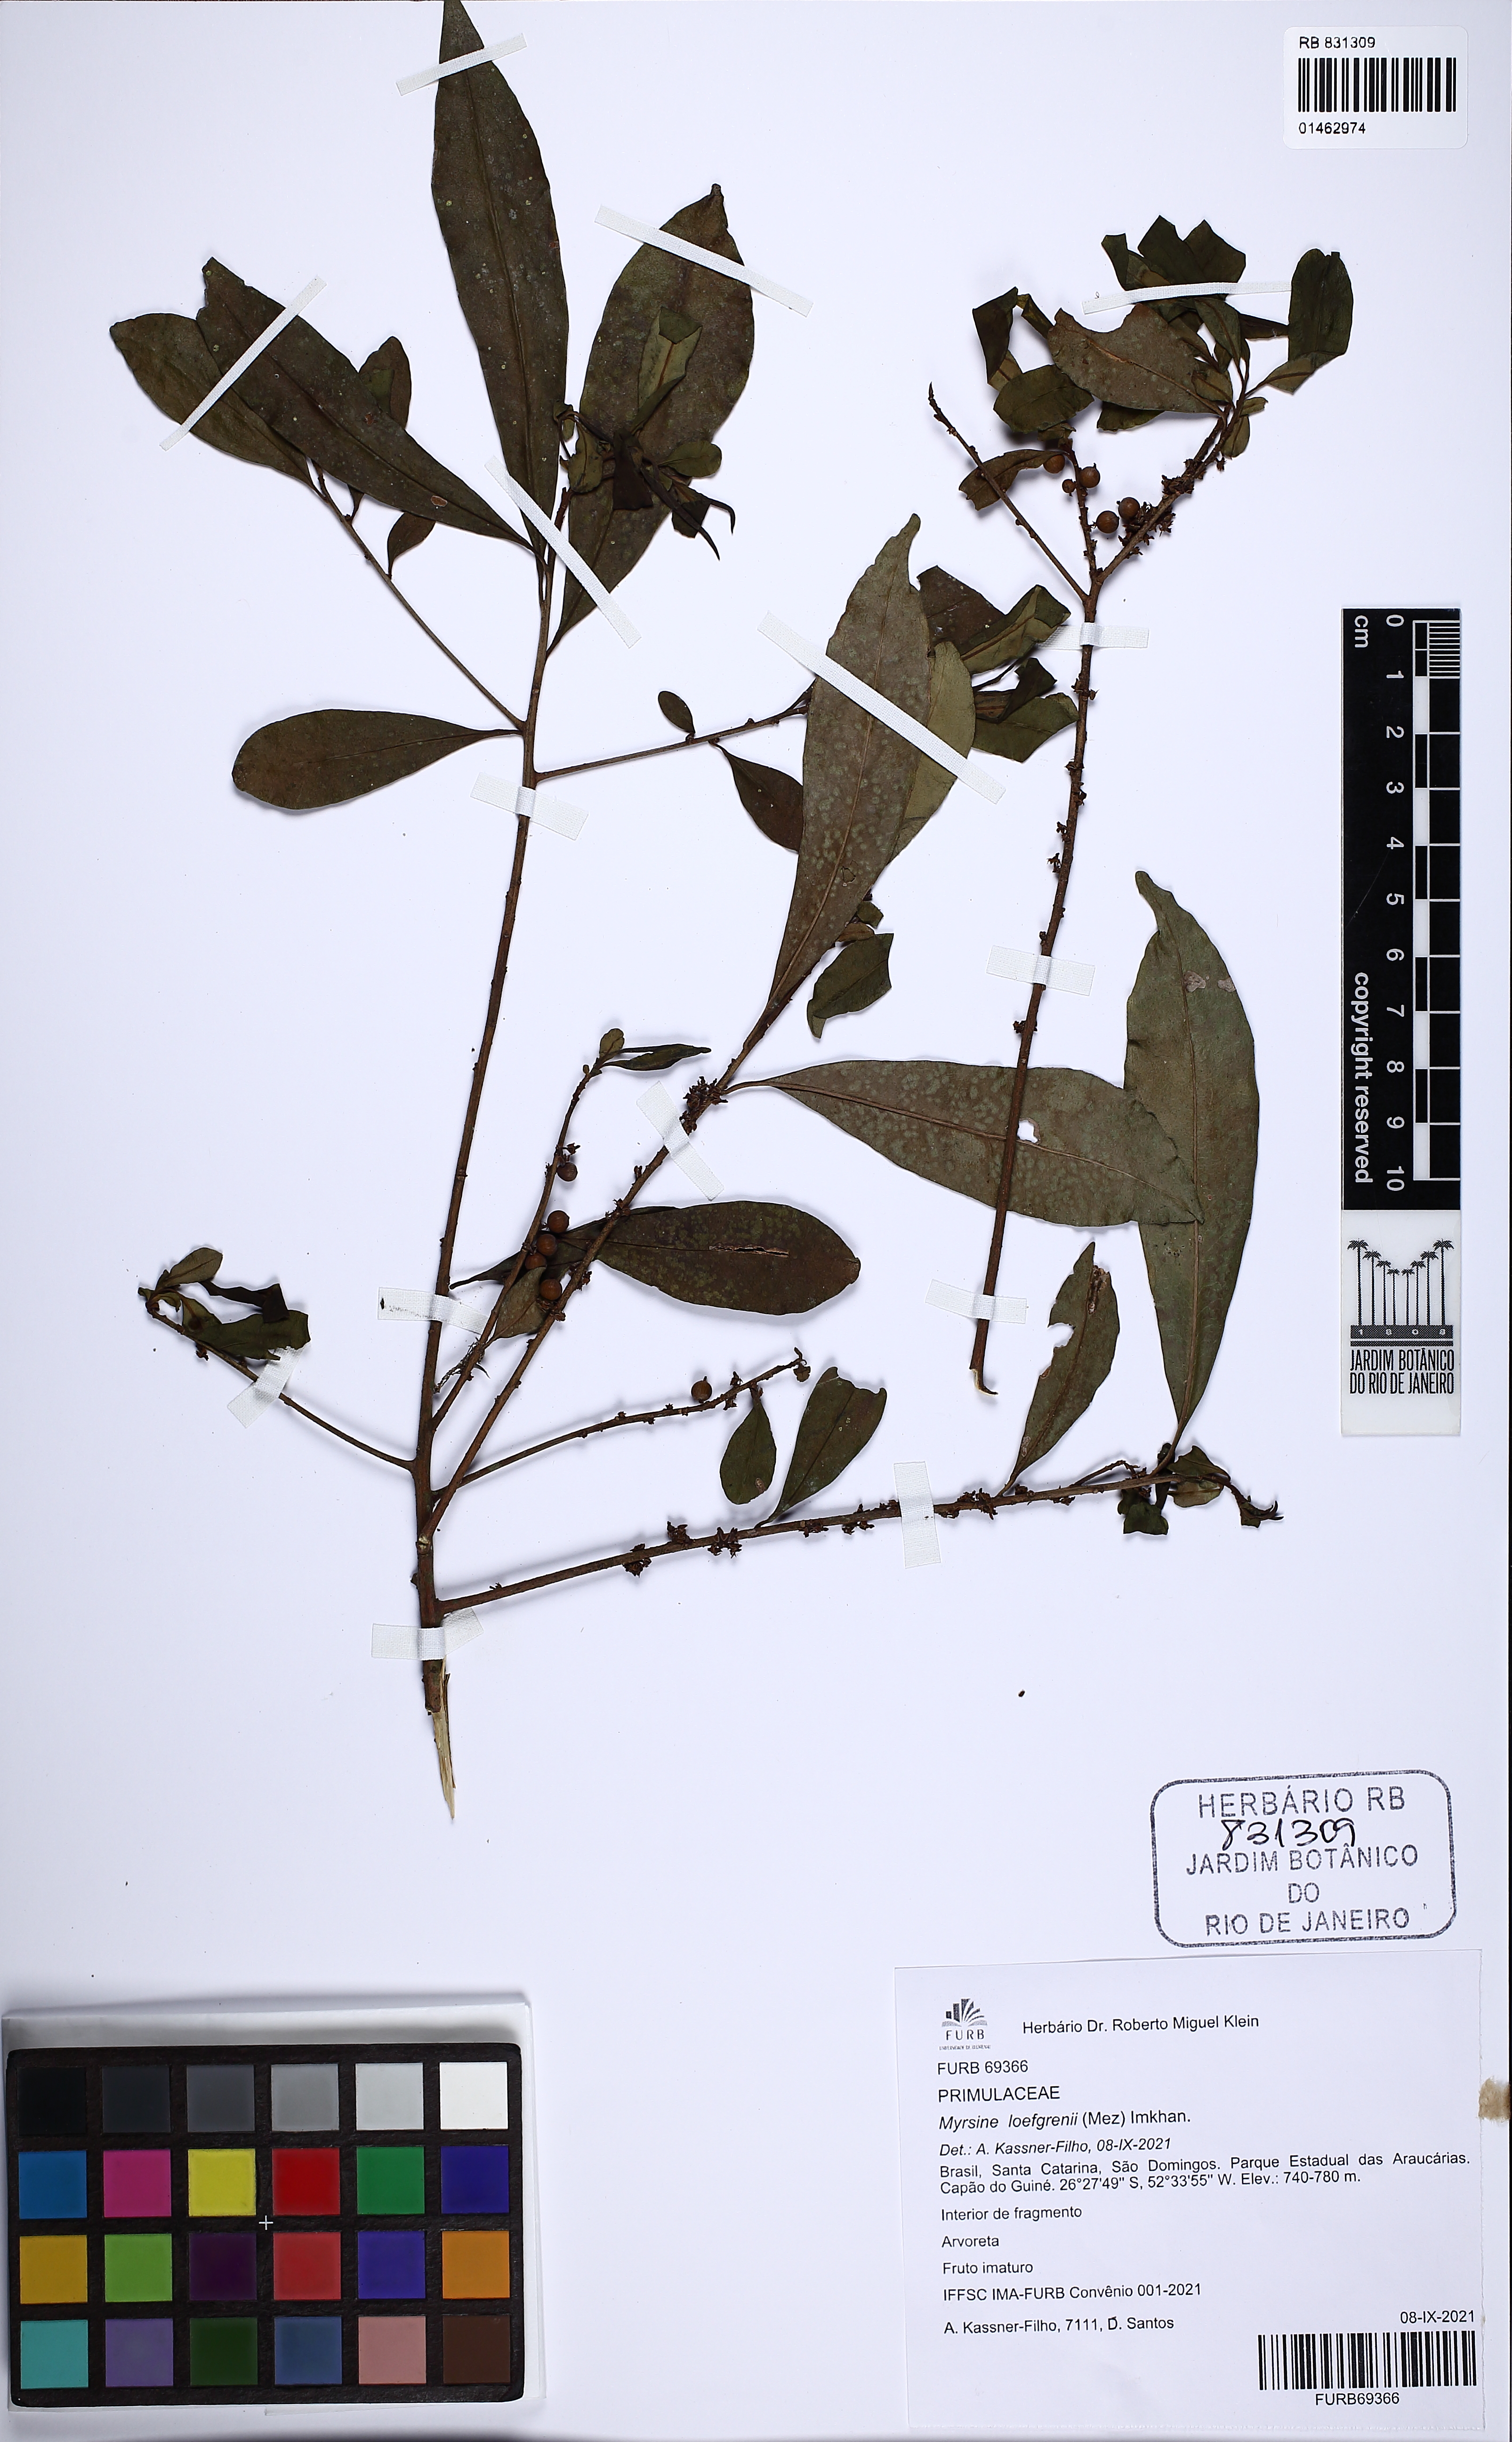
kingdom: Plantae
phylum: Tracheophyta
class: Magnoliopsida
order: Ericales
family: Primulaceae
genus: Myrsine
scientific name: Myrsine loefgrenii
